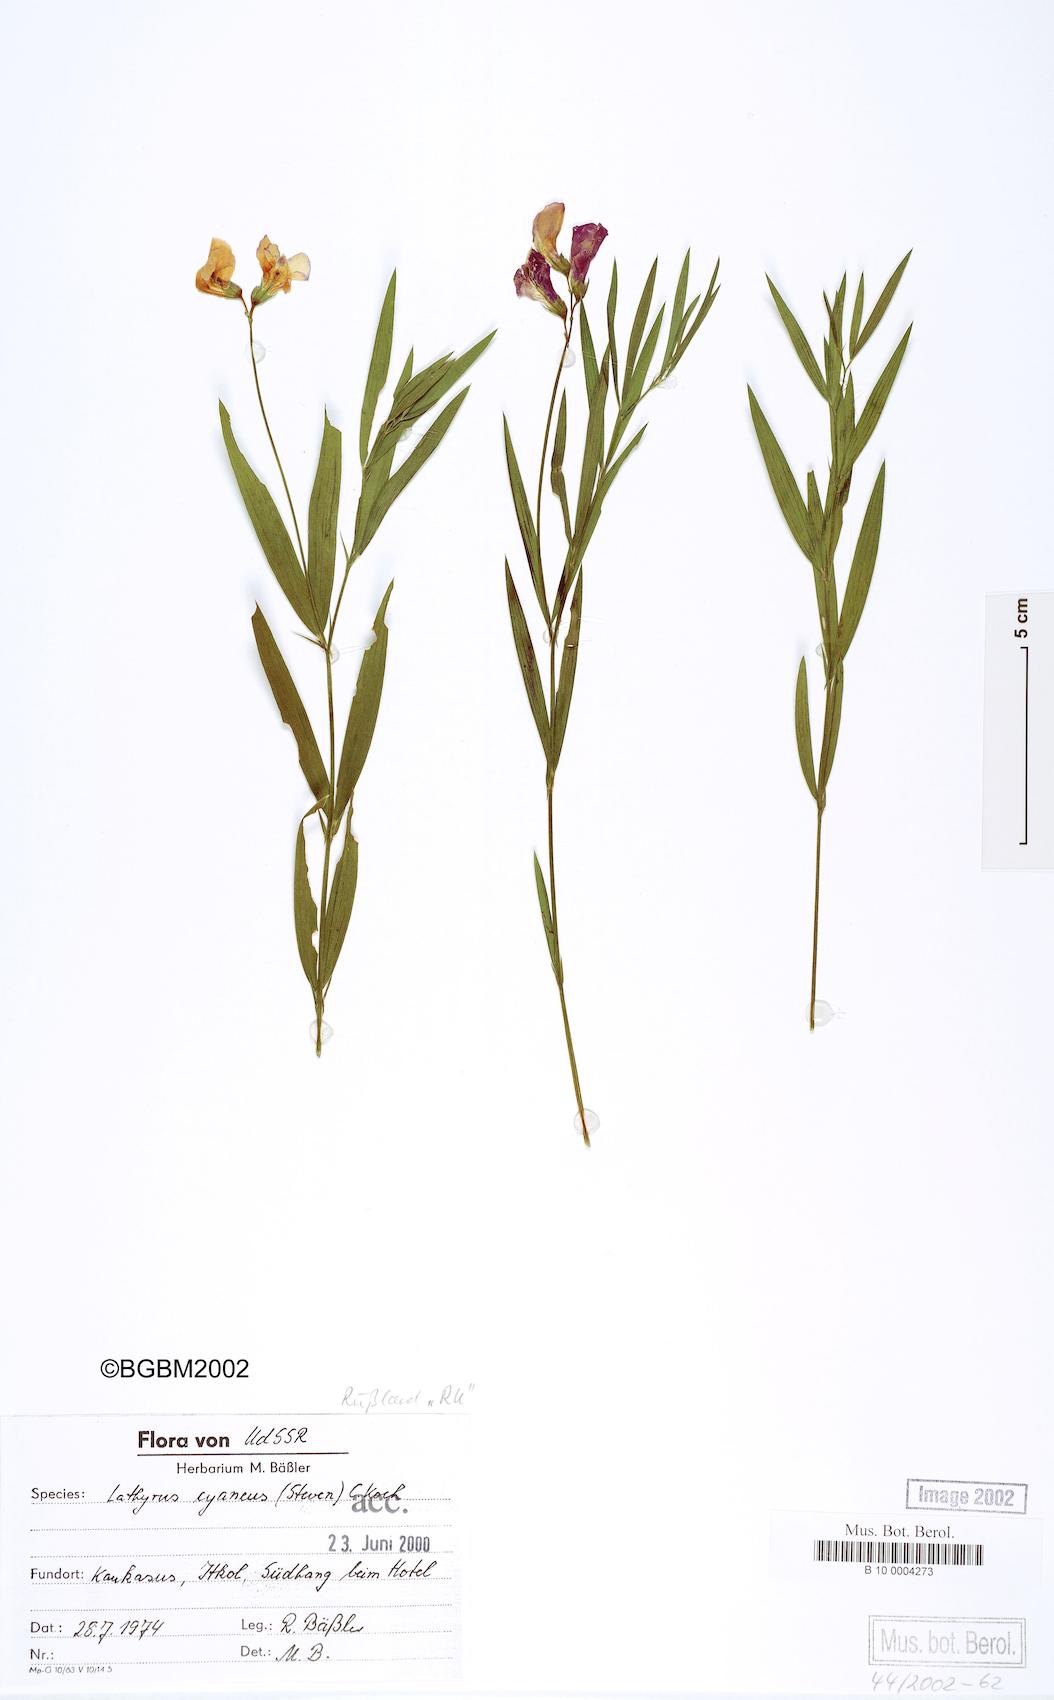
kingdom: Plantae
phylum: Tracheophyta
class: Magnoliopsida
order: Fabales
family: Fabaceae
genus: Lathyrus
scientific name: Lathyrus cyaneus
